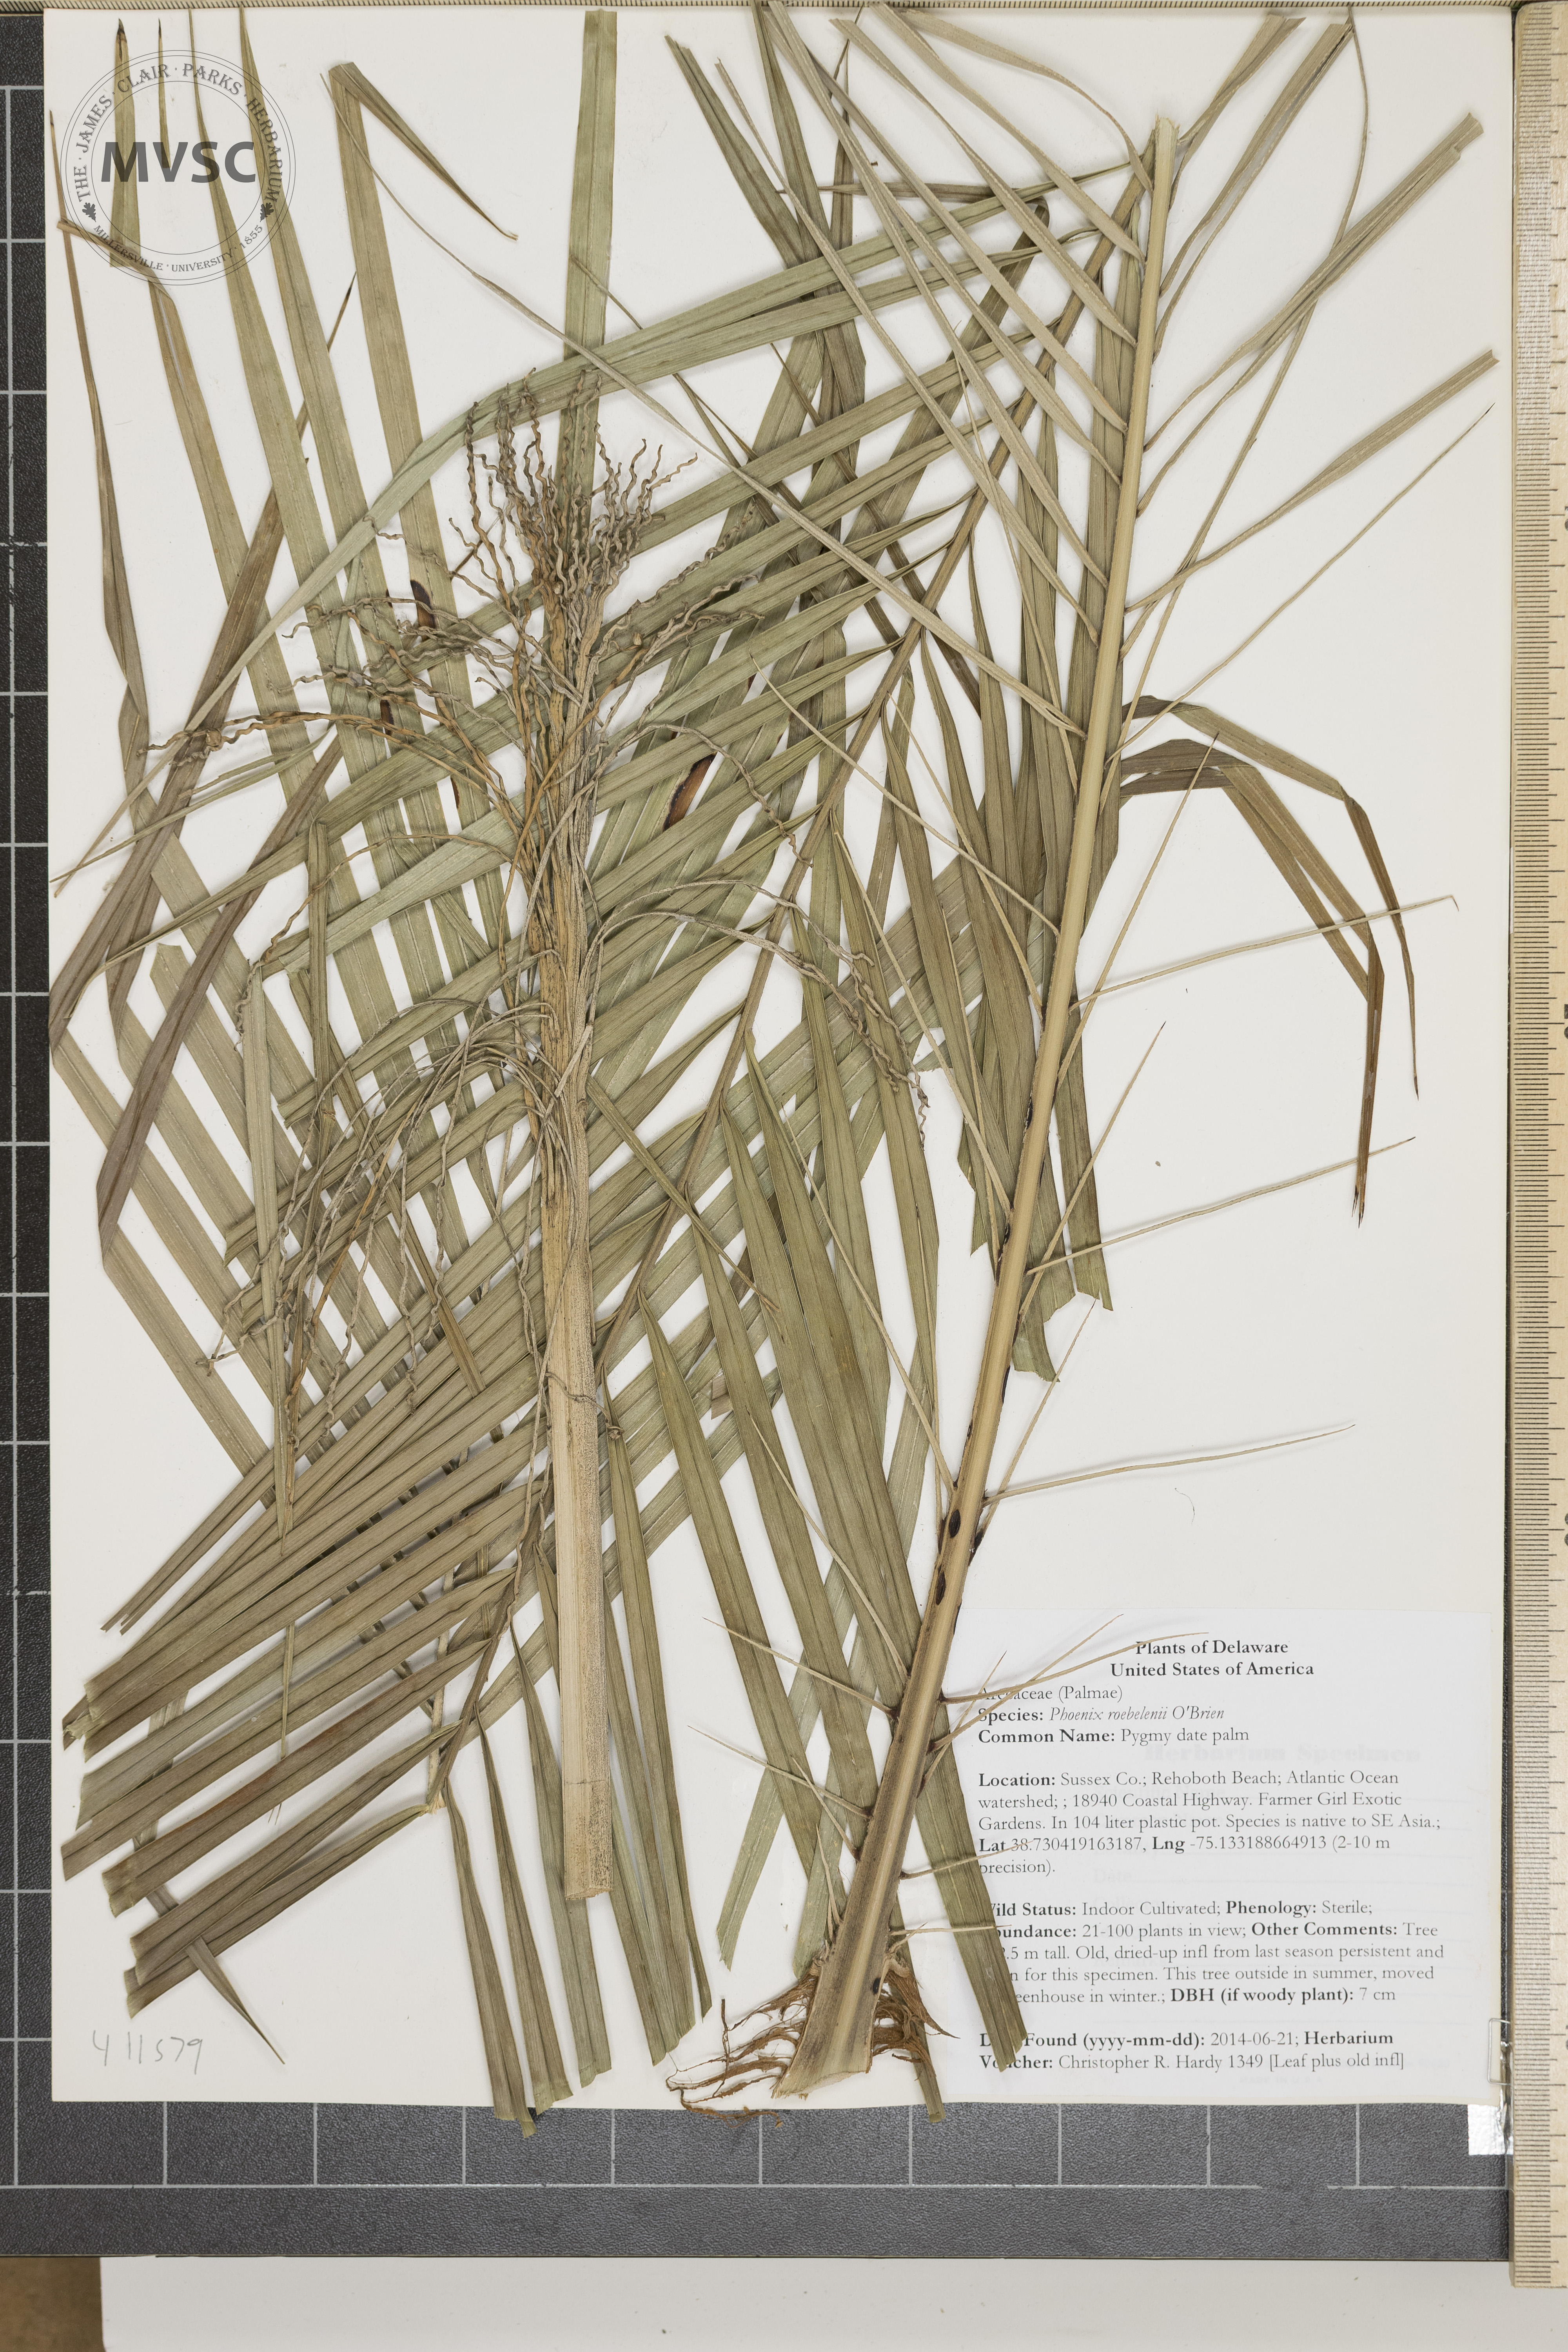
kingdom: Plantae
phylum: Tracheophyta
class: Liliopsida
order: Arecales
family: Arecaceae
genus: Phoenix
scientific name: Phoenix roebelenii
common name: Pygmy date palm
